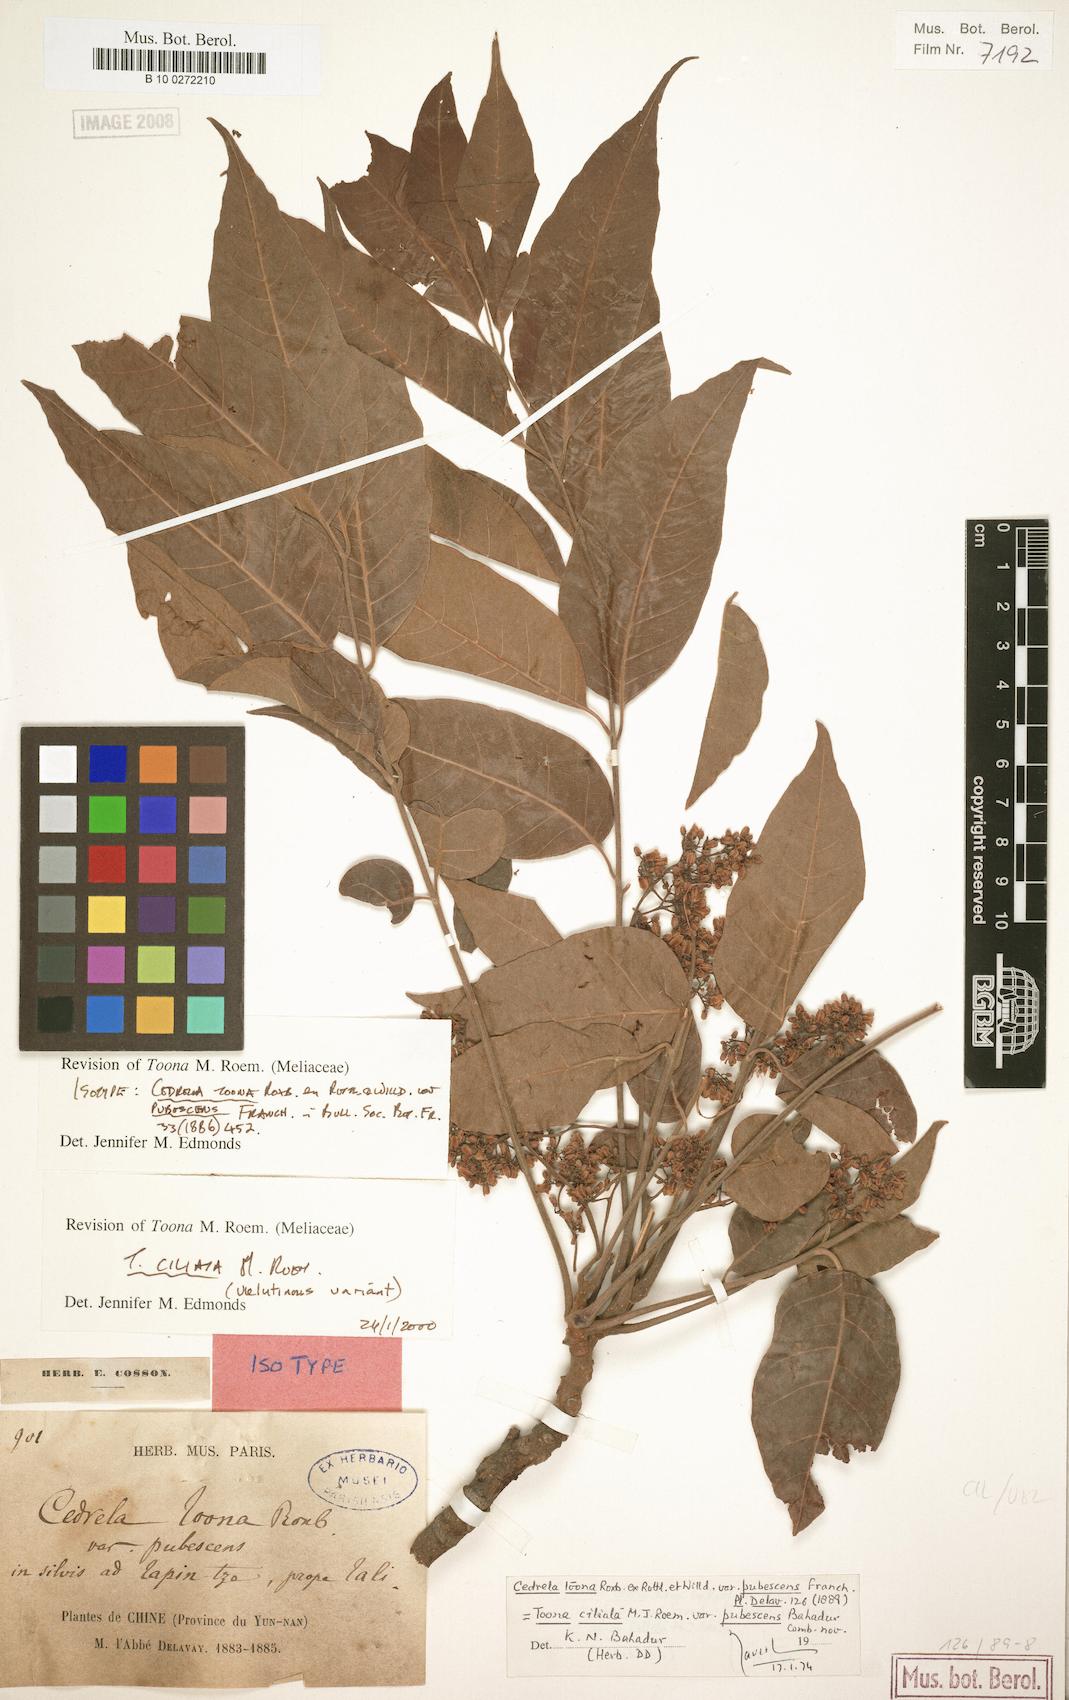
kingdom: Plantae
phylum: Tracheophyta
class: Magnoliopsida
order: Sapindales
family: Meliaceae
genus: Toona
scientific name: Toona ciliata
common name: Australian redcedar
